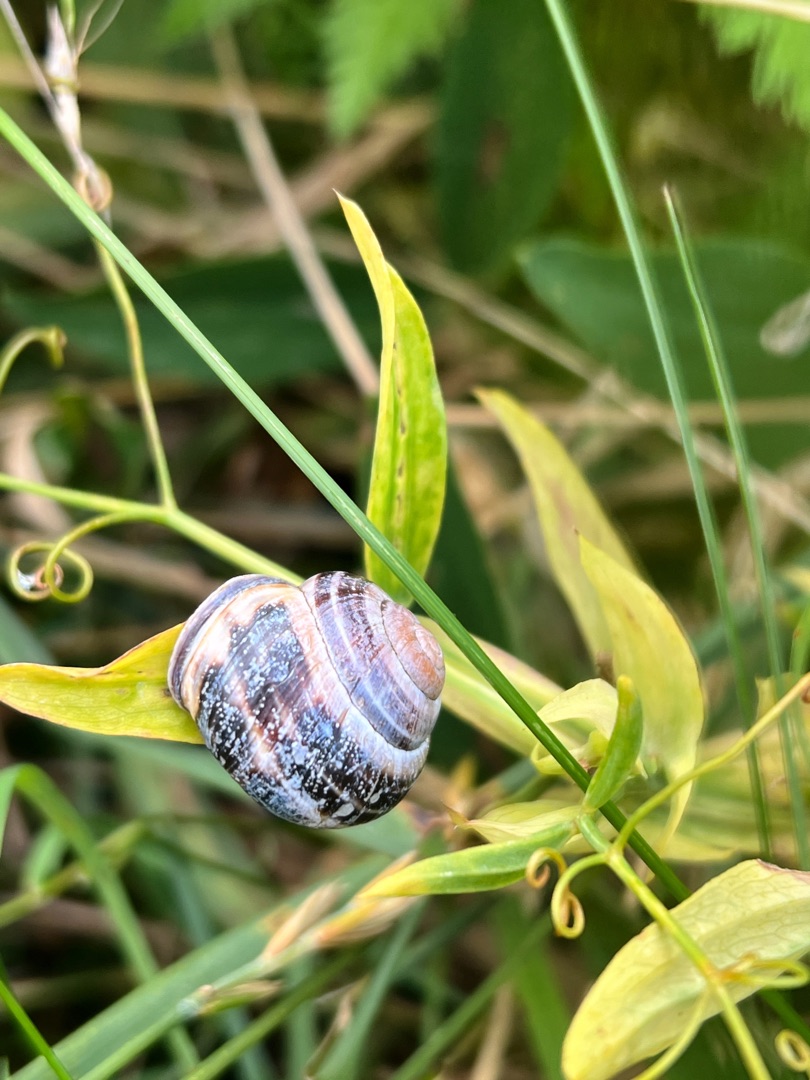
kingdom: Animalia
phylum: Mollusca
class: Gastropoda
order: Stylommatophora
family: Helicidae
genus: Cepaea
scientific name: Cepaea nemoralis
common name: Lundsnegl
